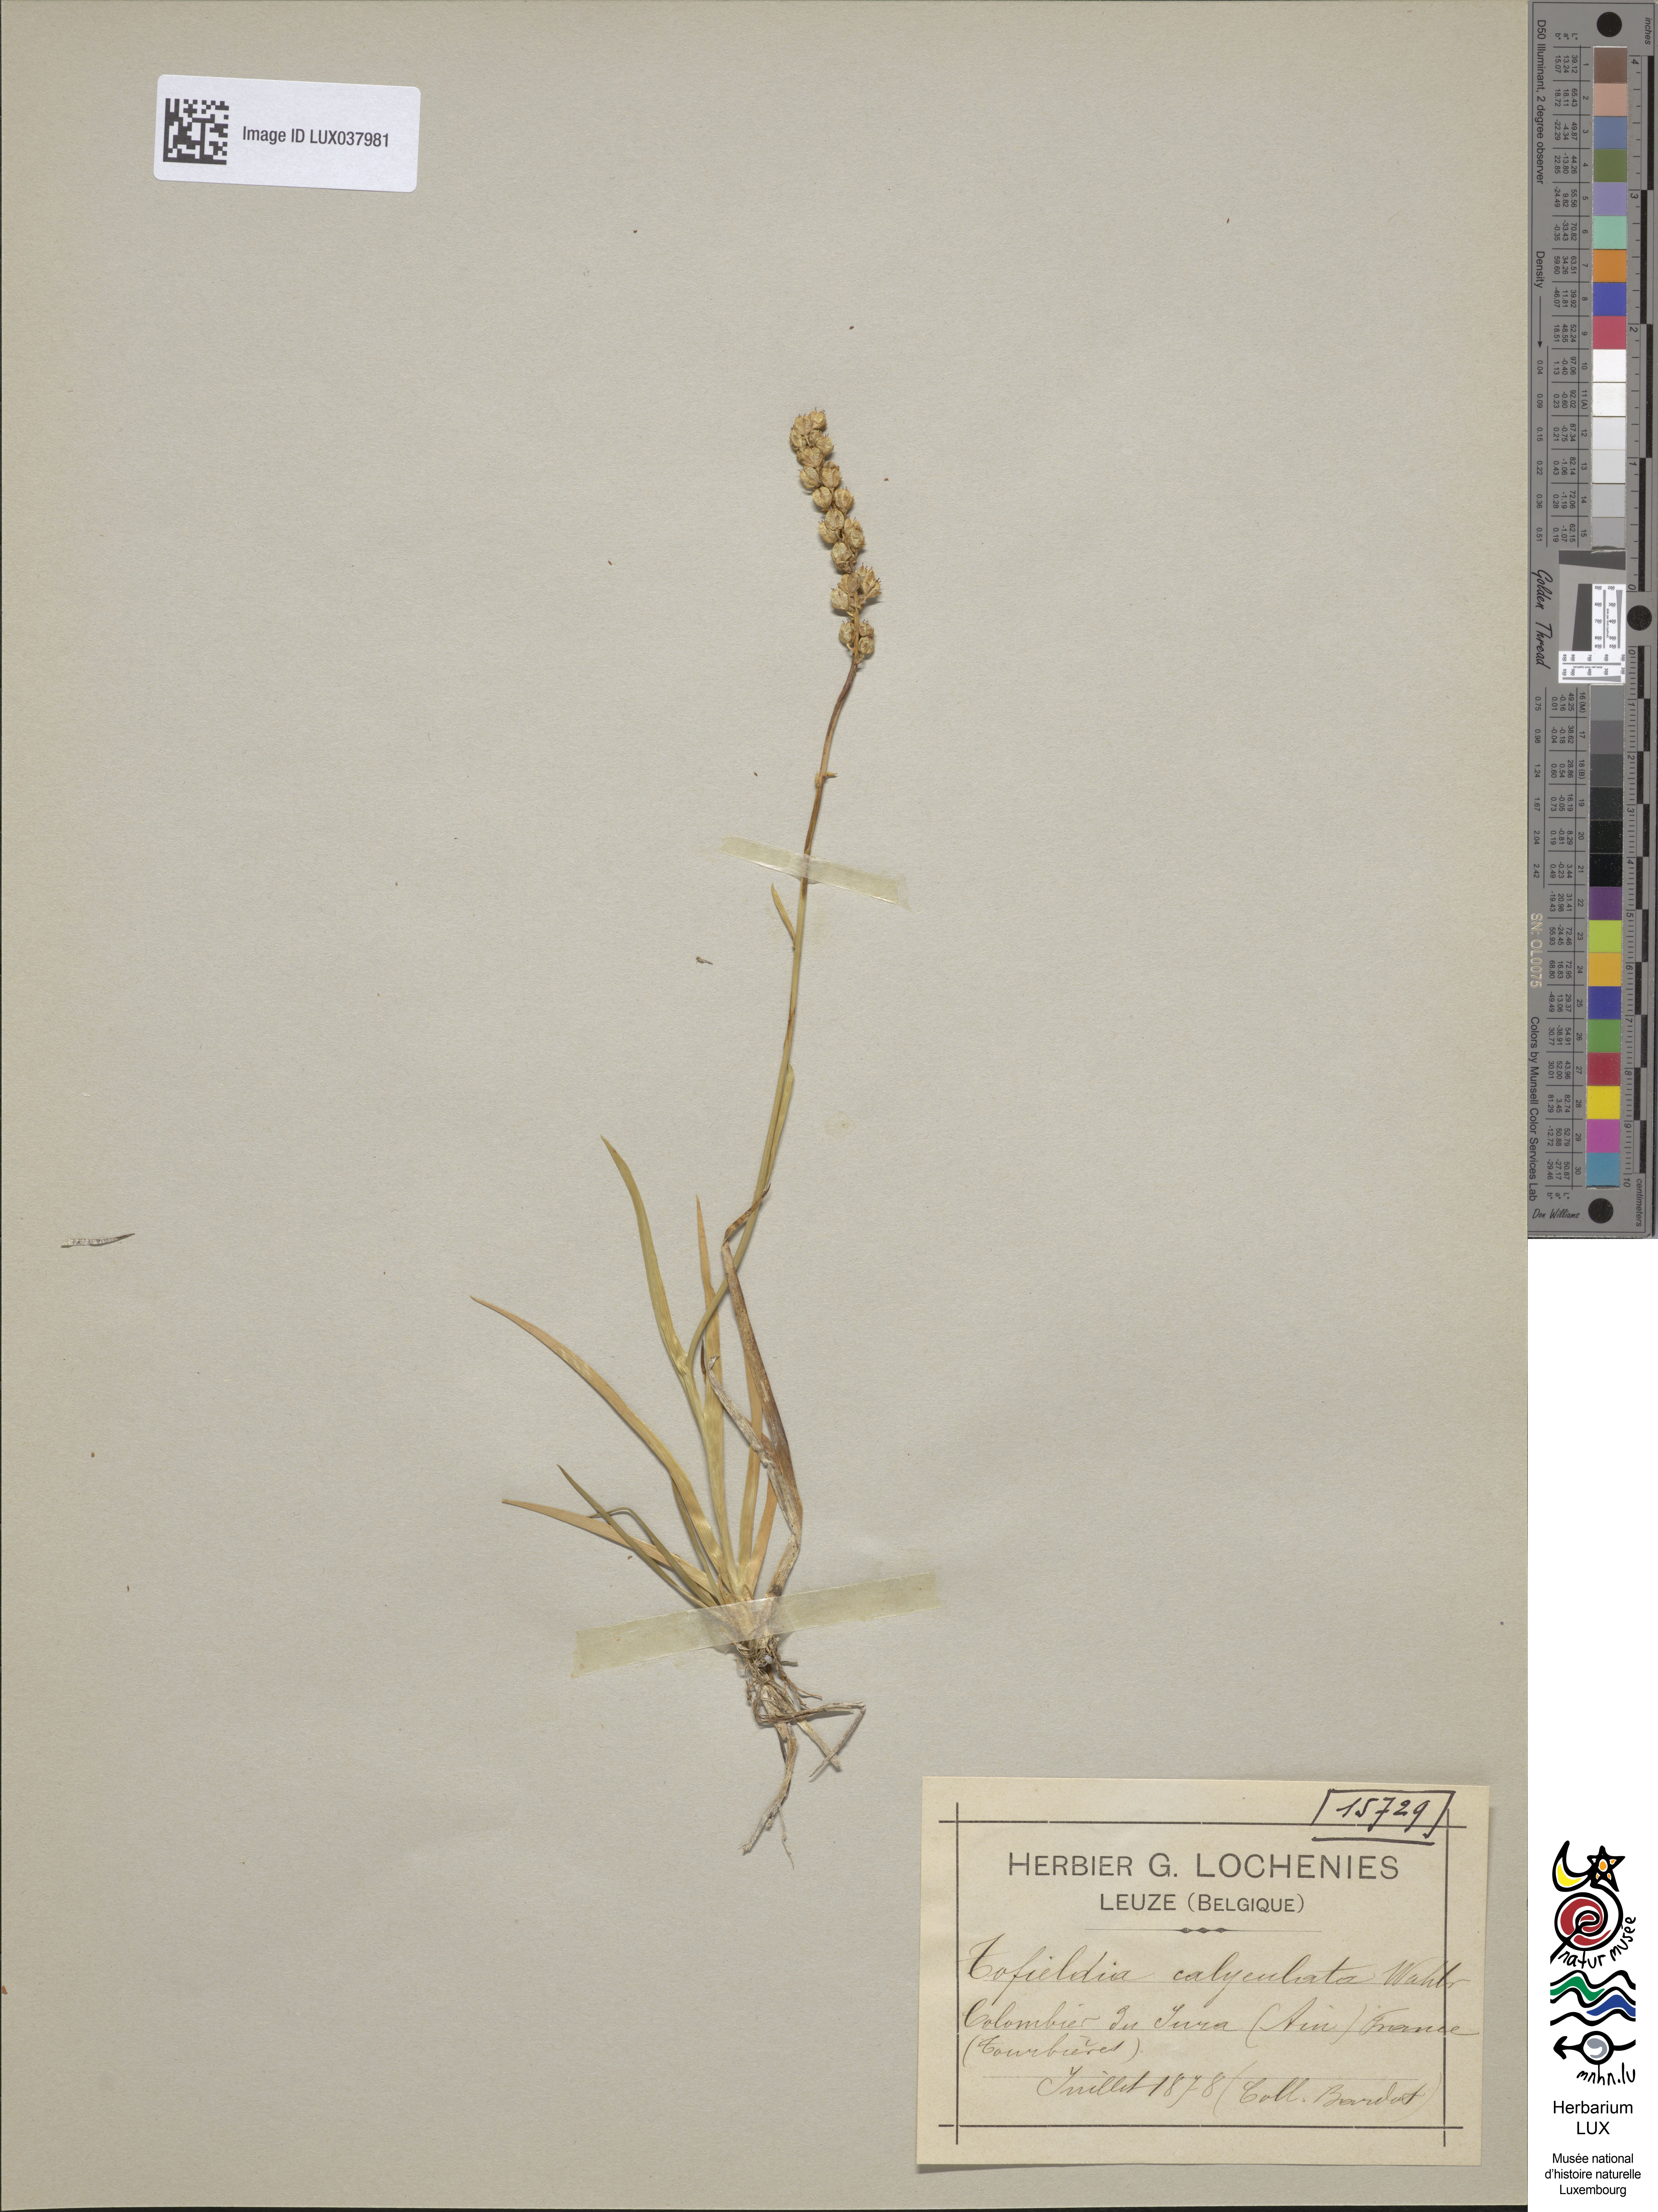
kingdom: Plantae
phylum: Tracheophyta
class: Liliopsida
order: Alismatales
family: Tofieldiaceae
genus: Tofieldia
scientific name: Tofieldia calyculata
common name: German-asphodel
